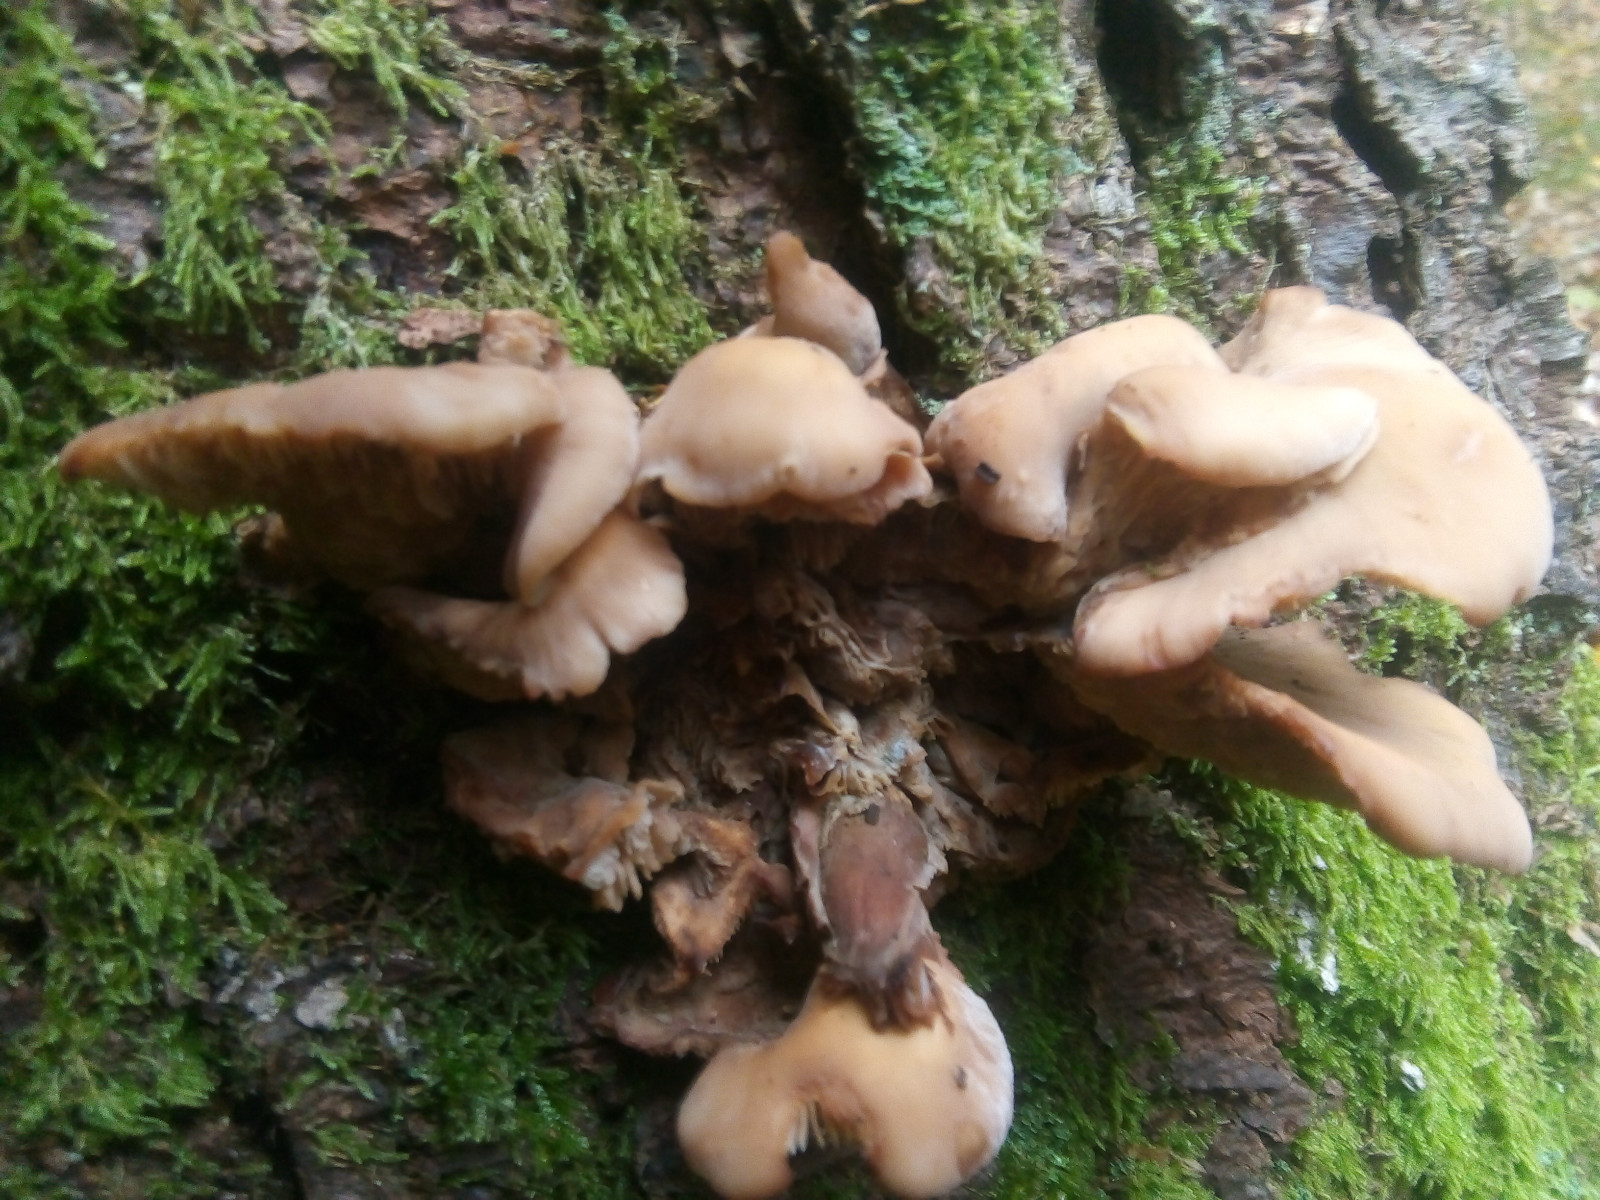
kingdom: Fungi
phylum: Basidiomycota
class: Agaricomycetes
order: Russulales
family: Auriscalpiaceae
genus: Lentinellus
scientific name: Lentinellus ursinus
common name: børstehåret savbladhat
